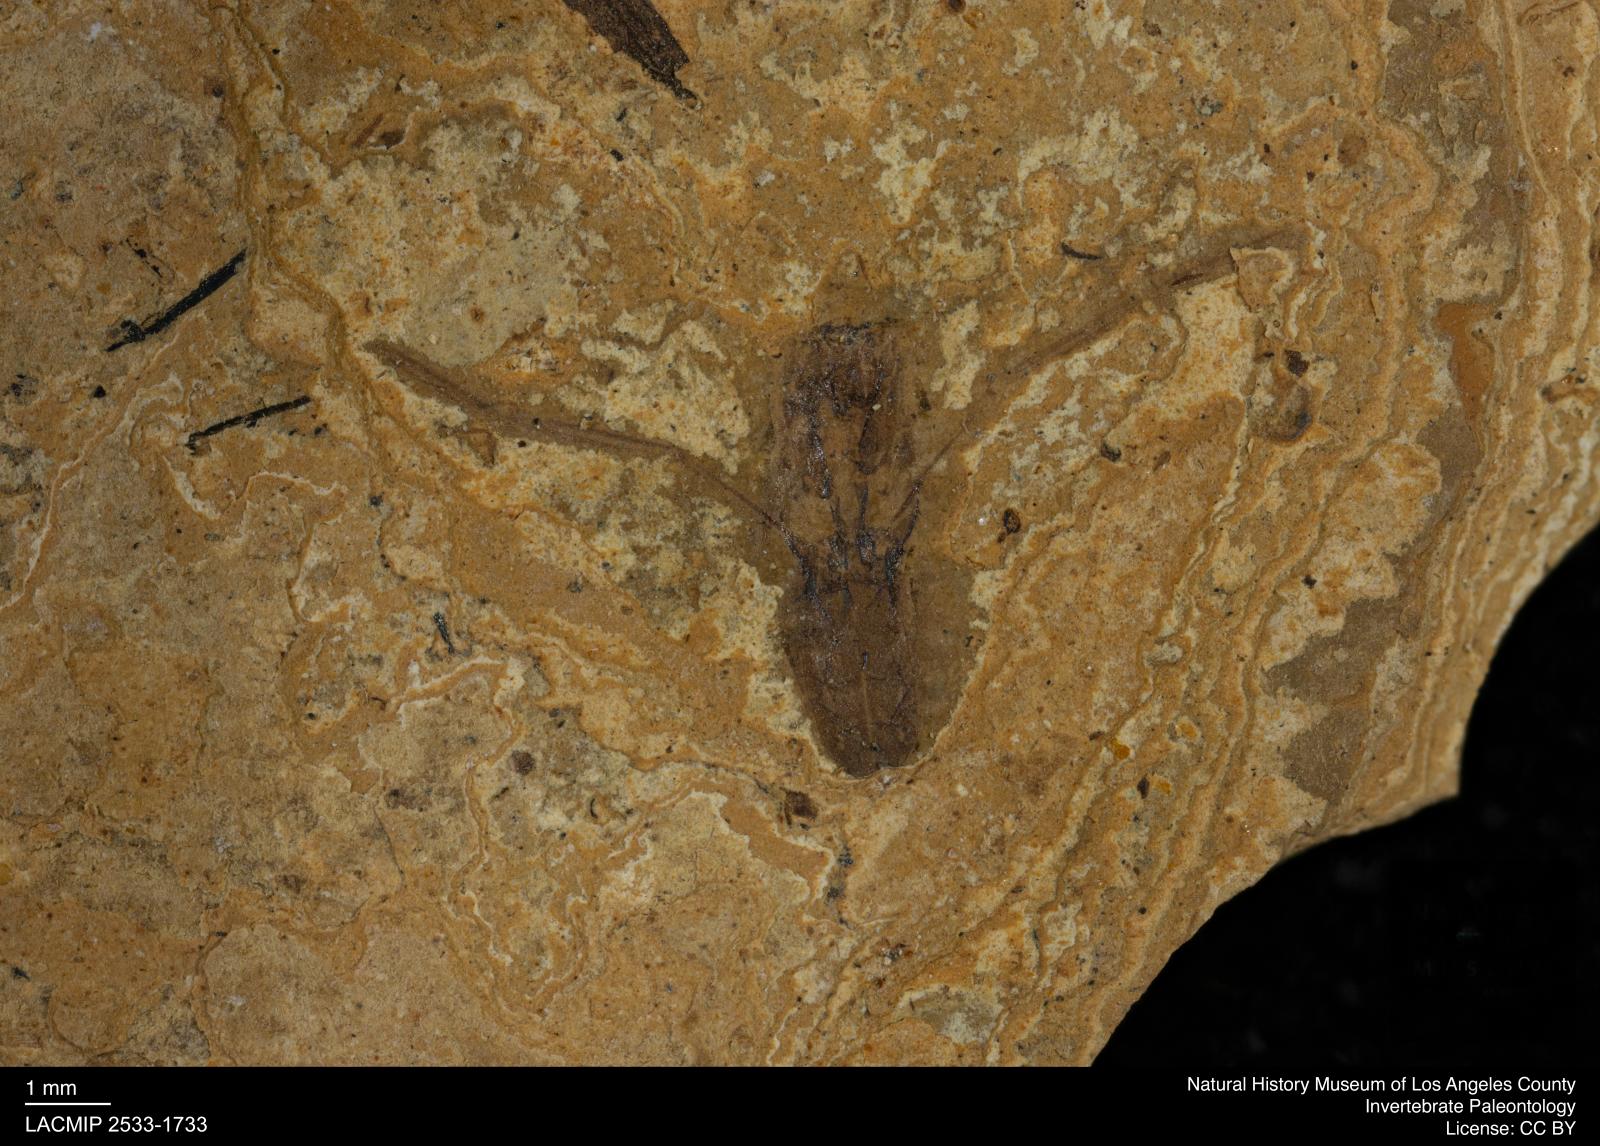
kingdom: Animalia
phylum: Arthropoda
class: Insecta
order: Hemiptera
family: Notonectidae
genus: Notonecta
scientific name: Notonecta
